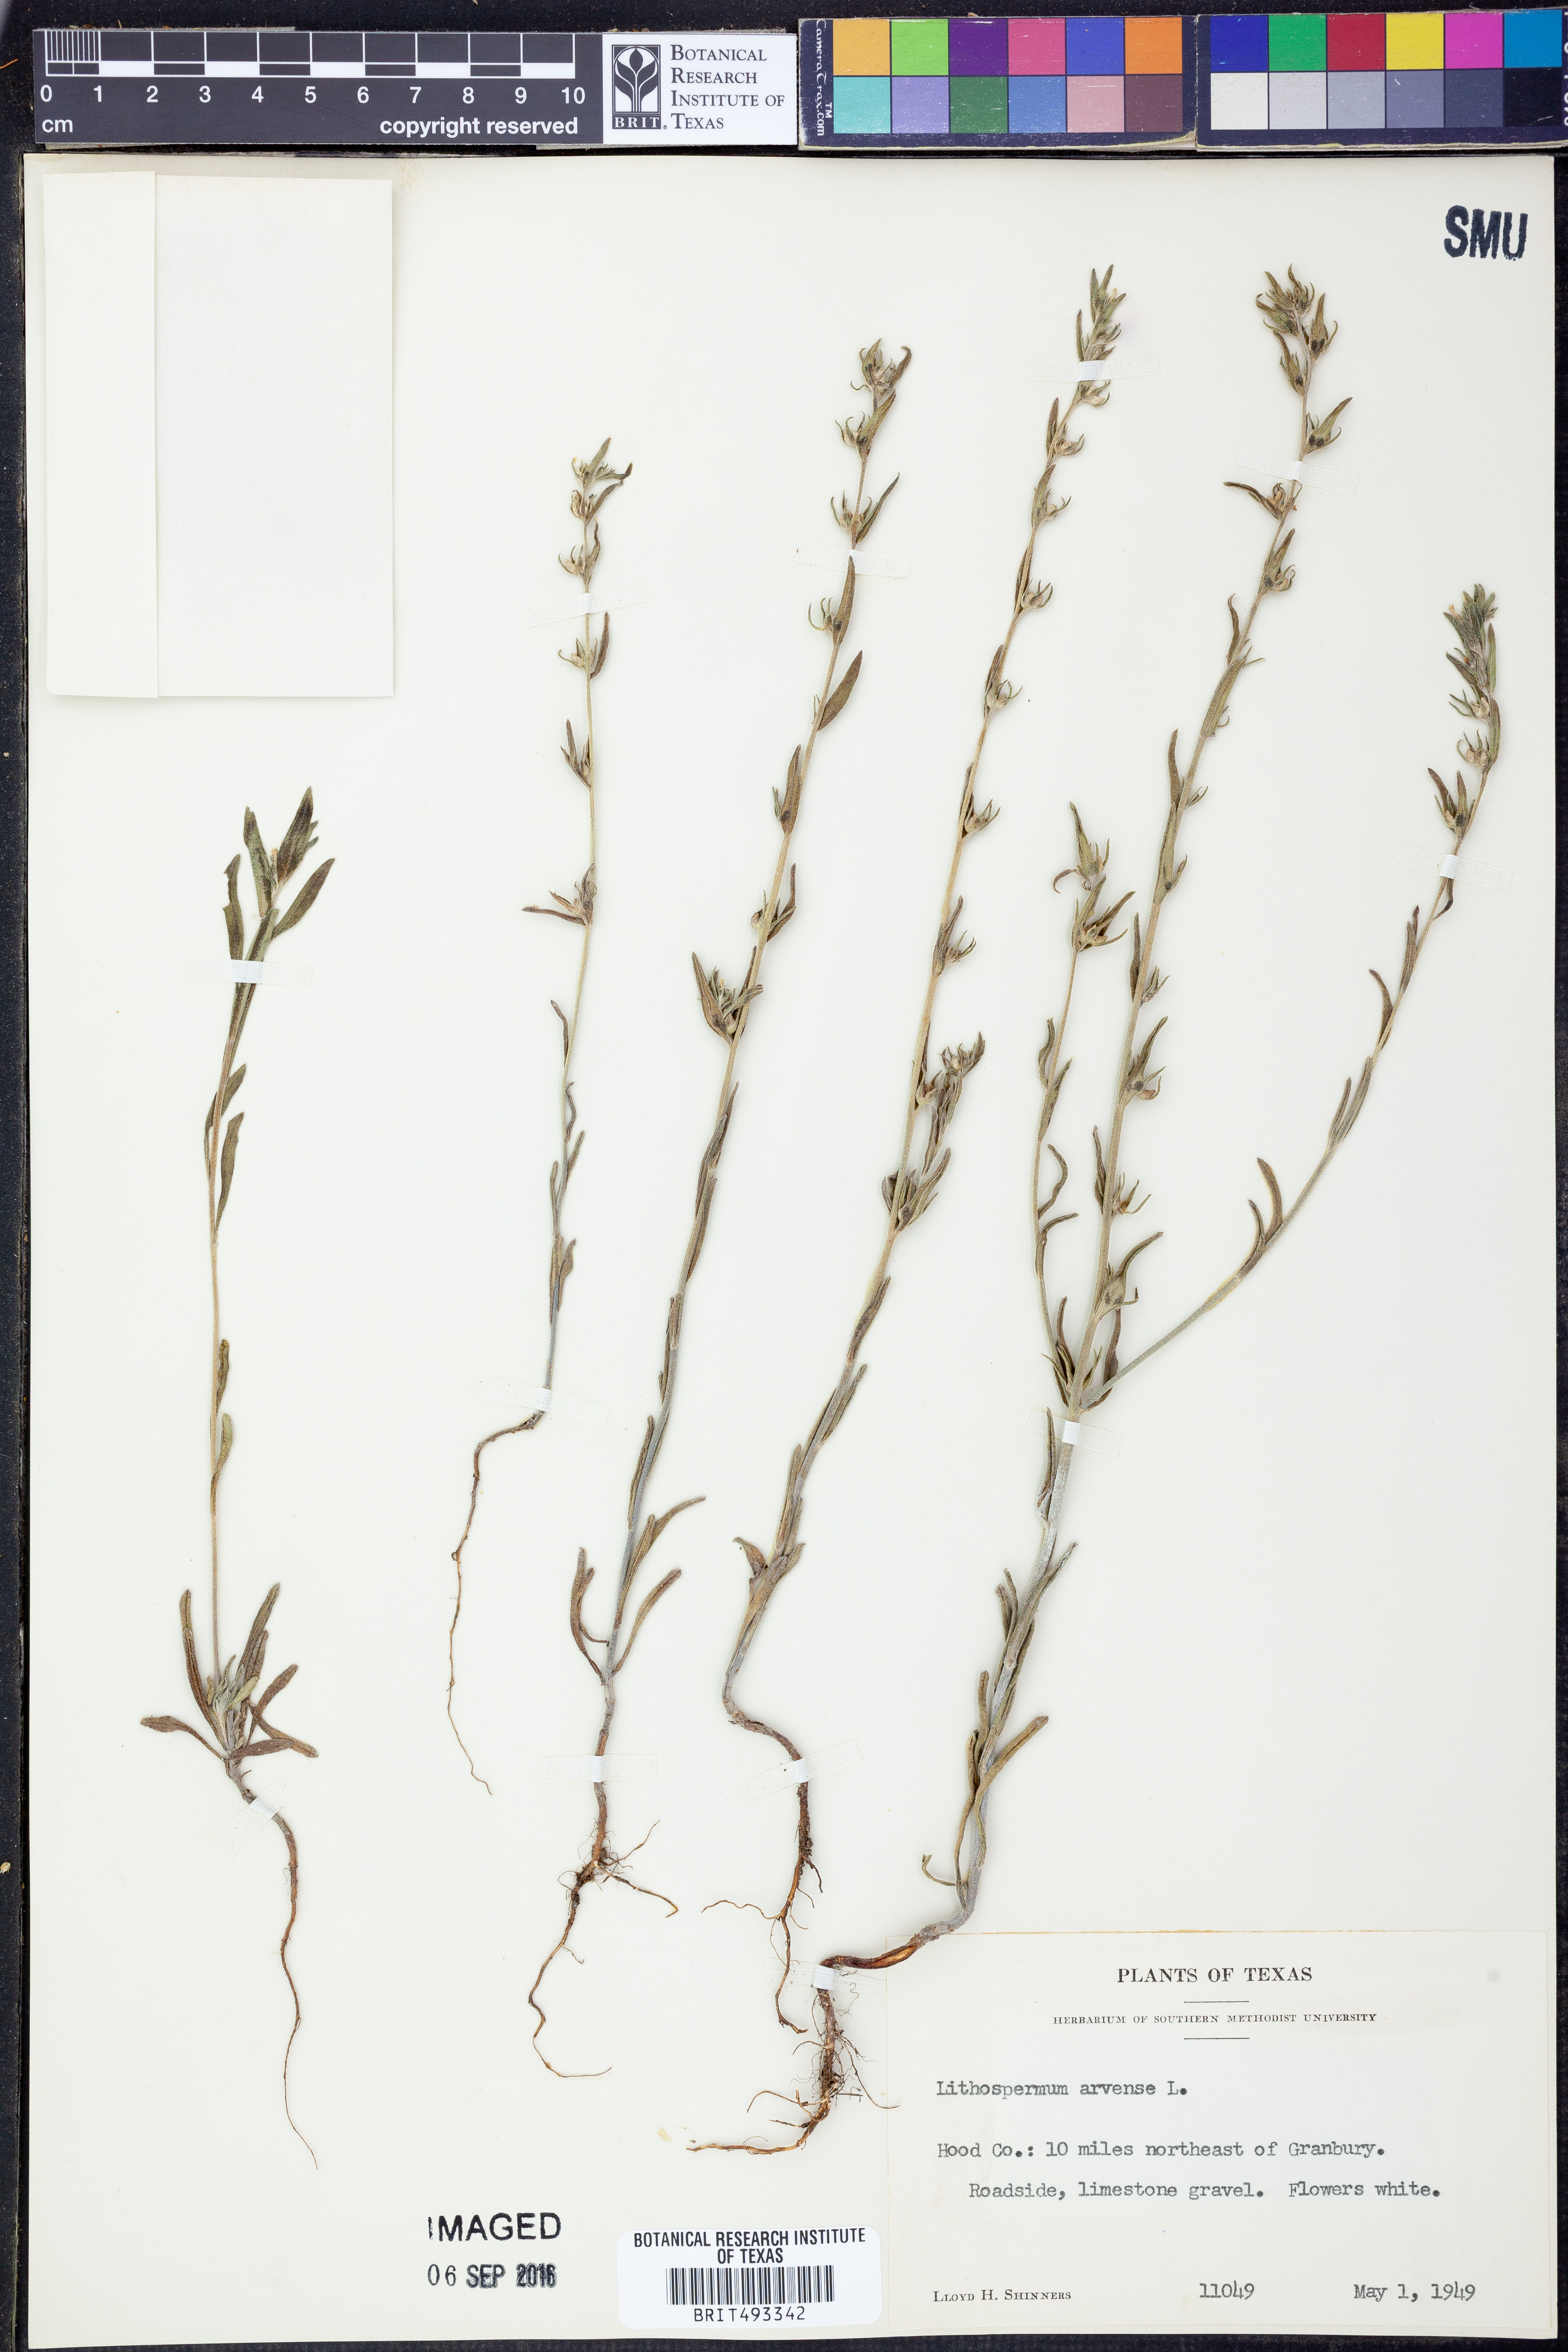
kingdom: Plantae
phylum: Tracheophyta
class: Magnoliopsida
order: Boraginales
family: Boraginaceae
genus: Lithospermum
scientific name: Lithospermum erythrorhizon
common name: Purple gromwell
